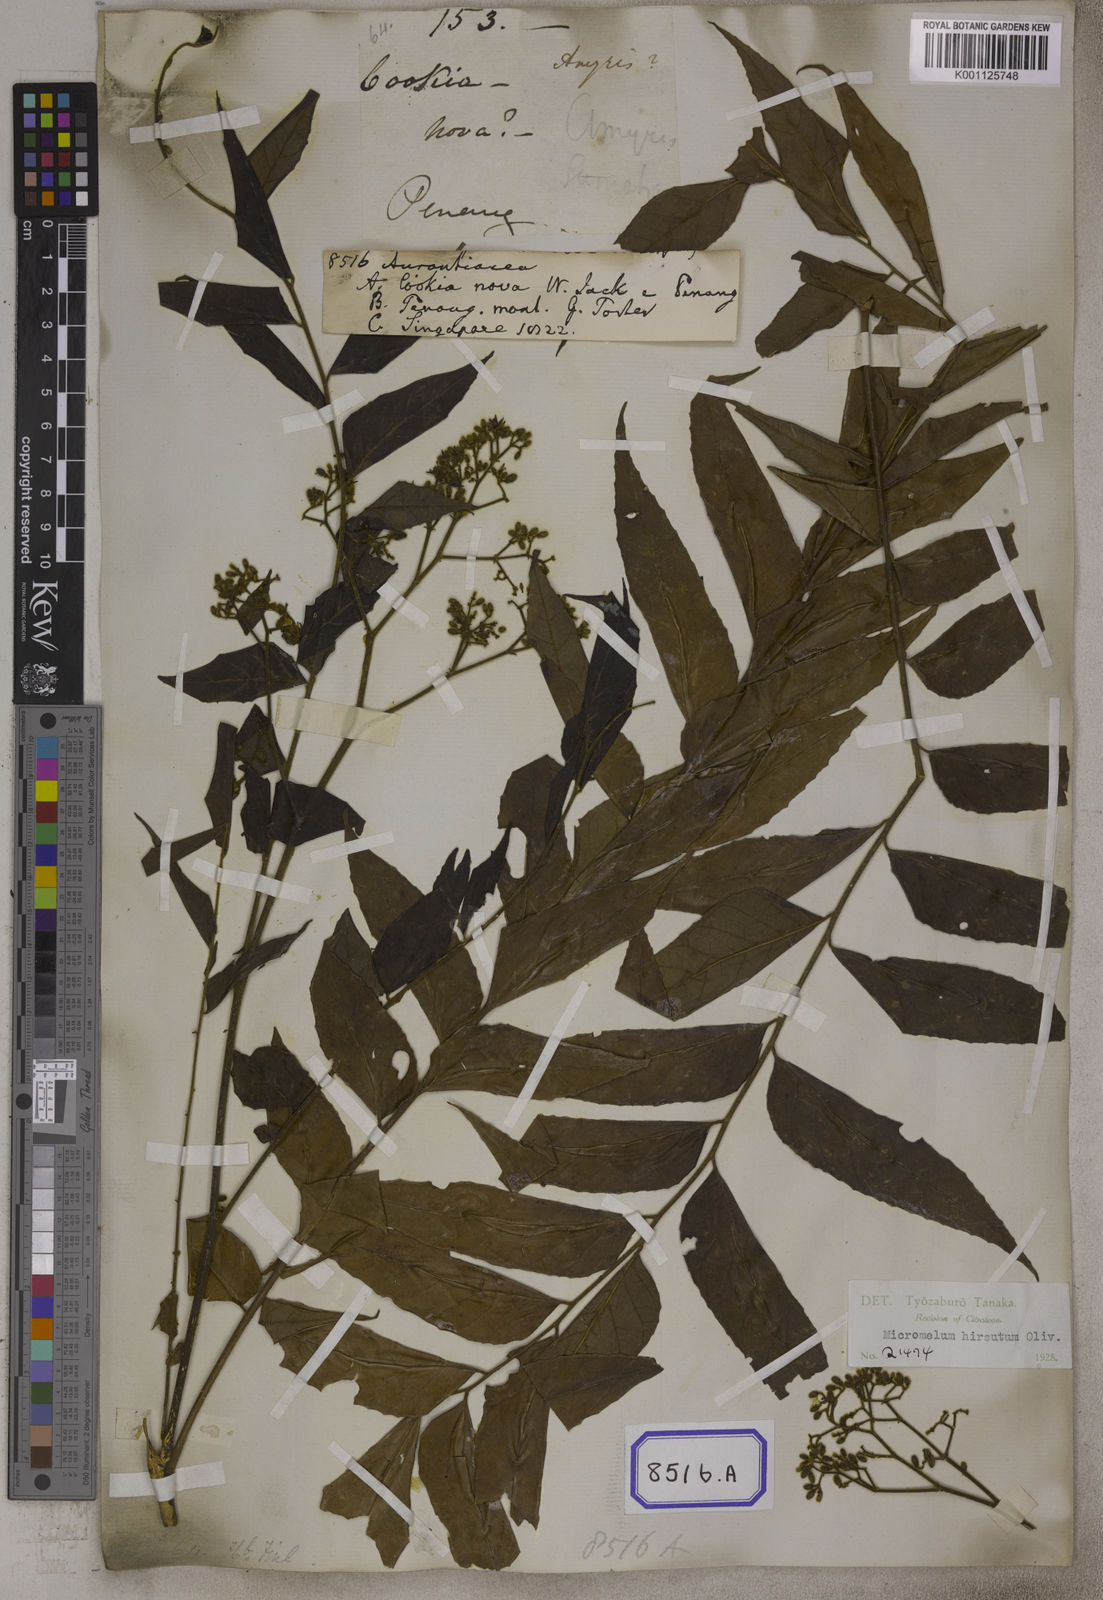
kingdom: Plantae
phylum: Tracheophyta
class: Magnoliopsida
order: Sapindales
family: Rutaceae
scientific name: Rutaceae
